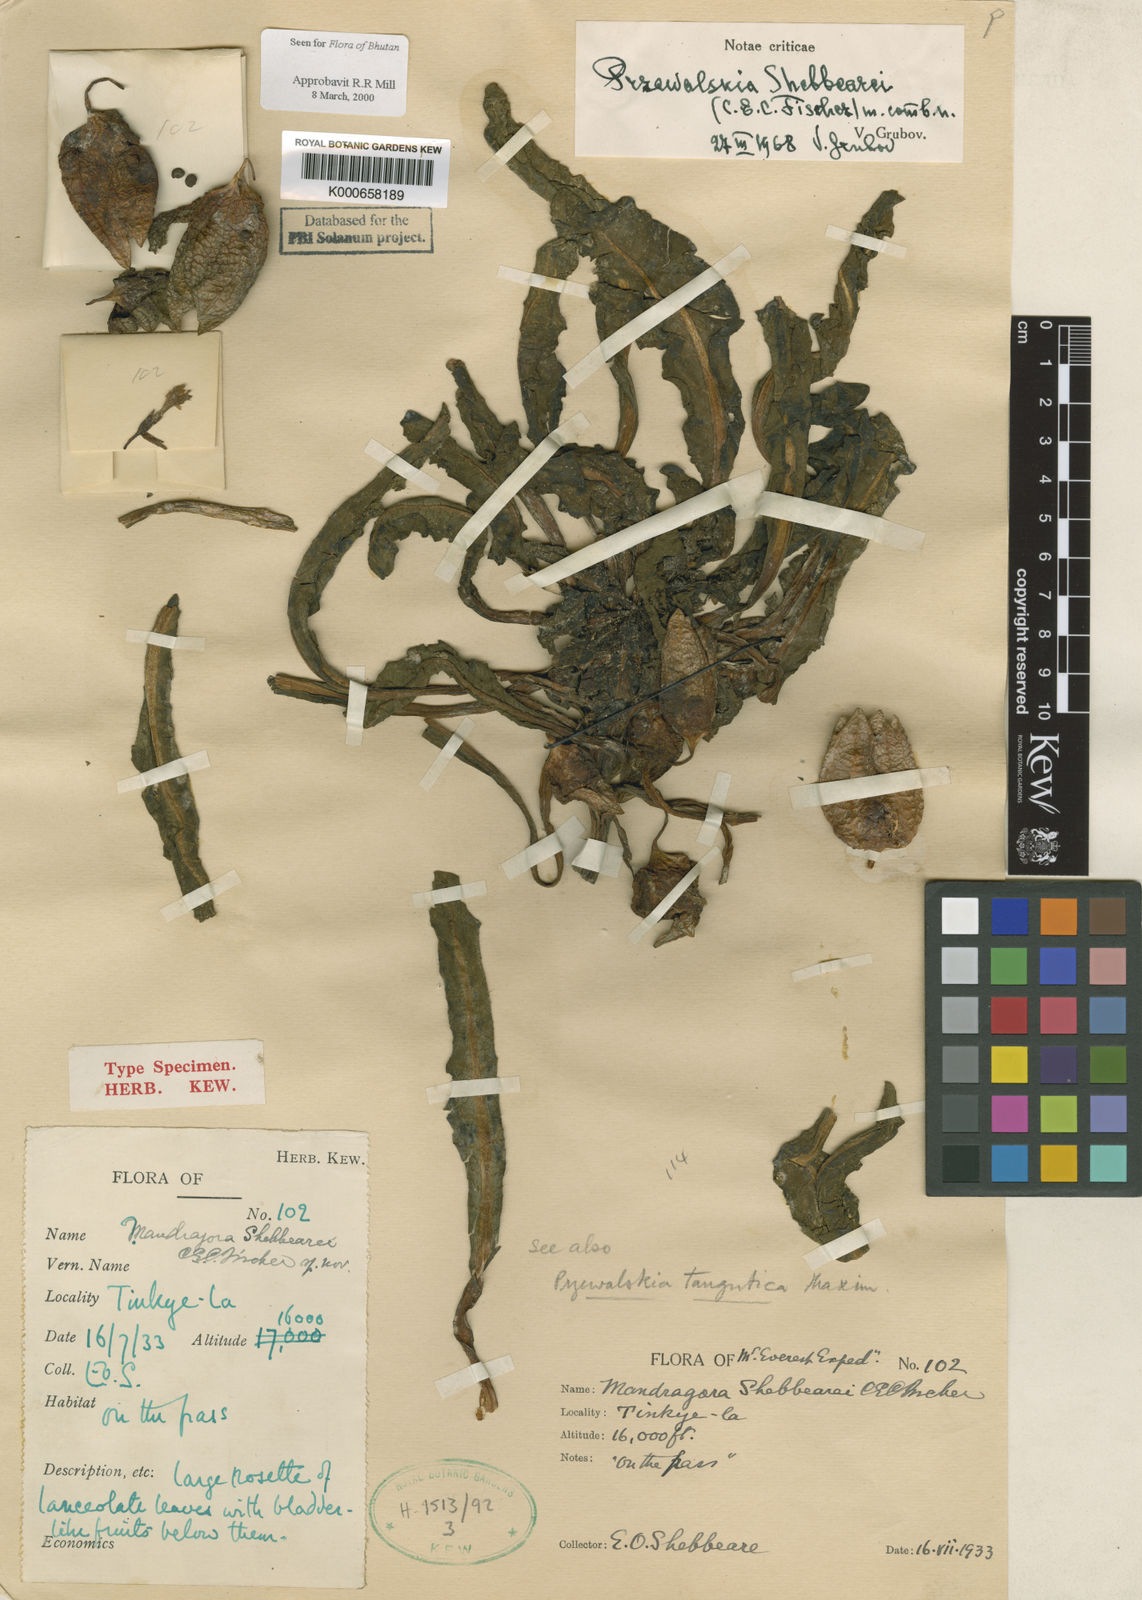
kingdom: Plantae
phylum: Tracheophyta
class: Magnoliopsida
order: Solanales
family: Solanaceae
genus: Przewalskia
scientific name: Przewalskia tangutica
